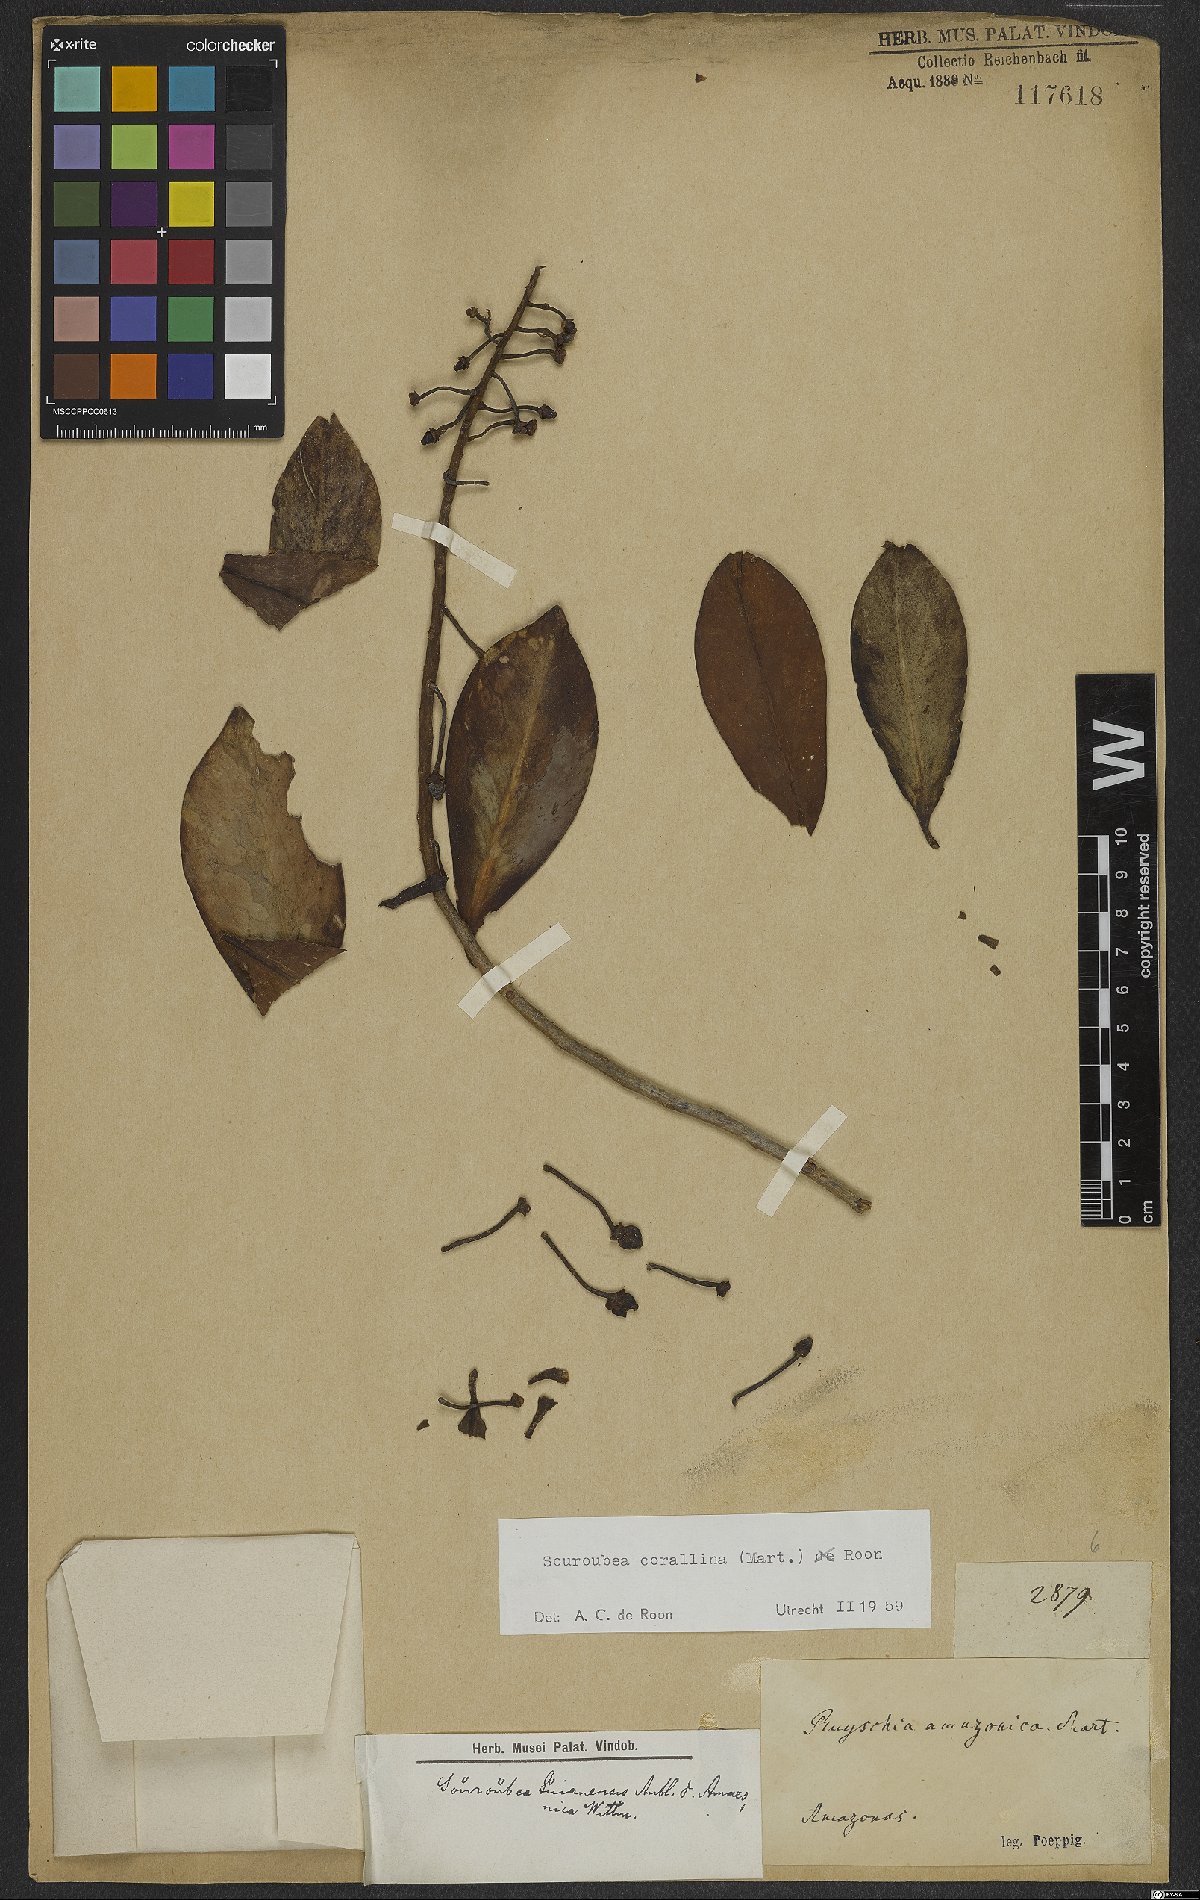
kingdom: Plantae
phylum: Tracheophyta
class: Magnoliopsida
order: Ericales
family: Marcgraviaceae
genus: Souroubea
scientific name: Souroubea corallina
